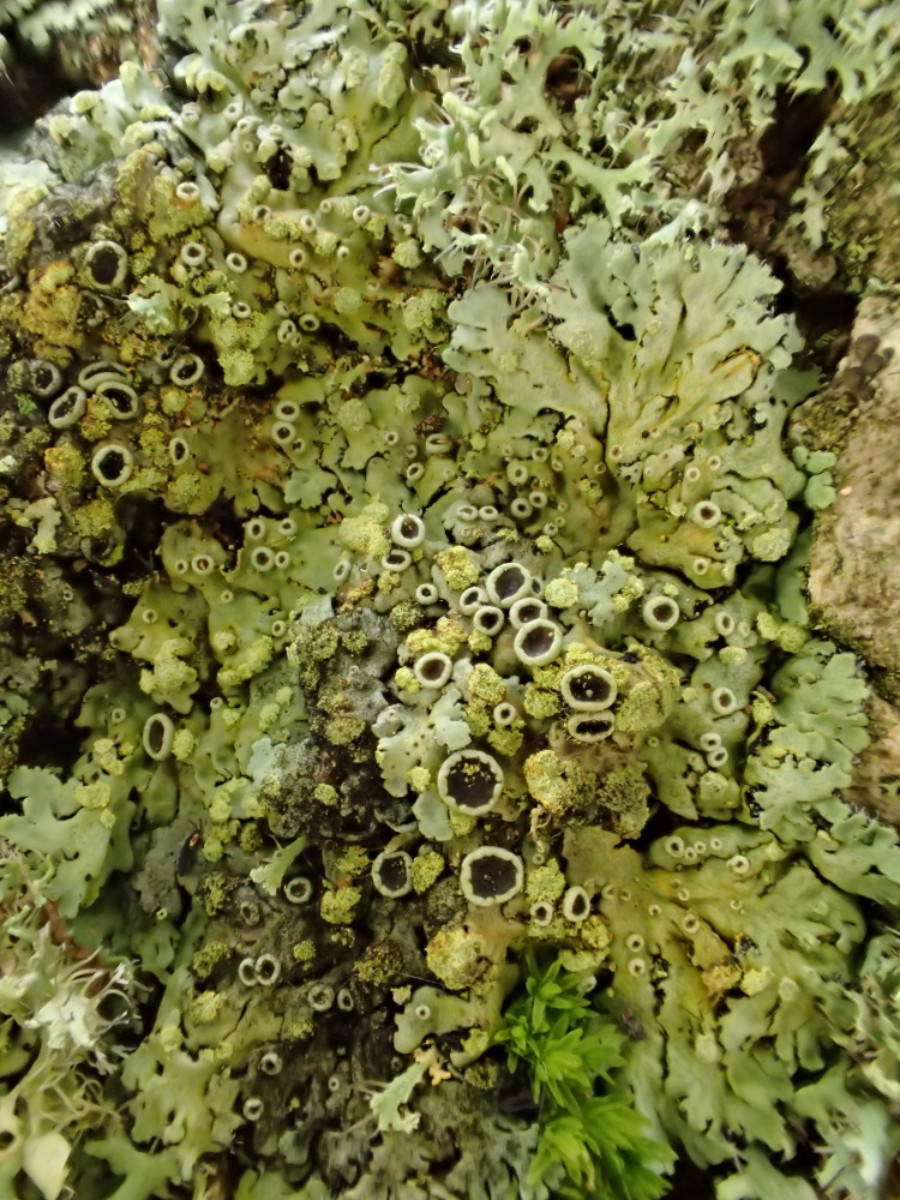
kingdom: Fungi
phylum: Ascomycota
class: Lecanoromycetes
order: Caliciales
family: Physciaceae
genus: Phaeophyscia
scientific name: Phaeophyscia orbicularis
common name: grågrøn rosetlav
